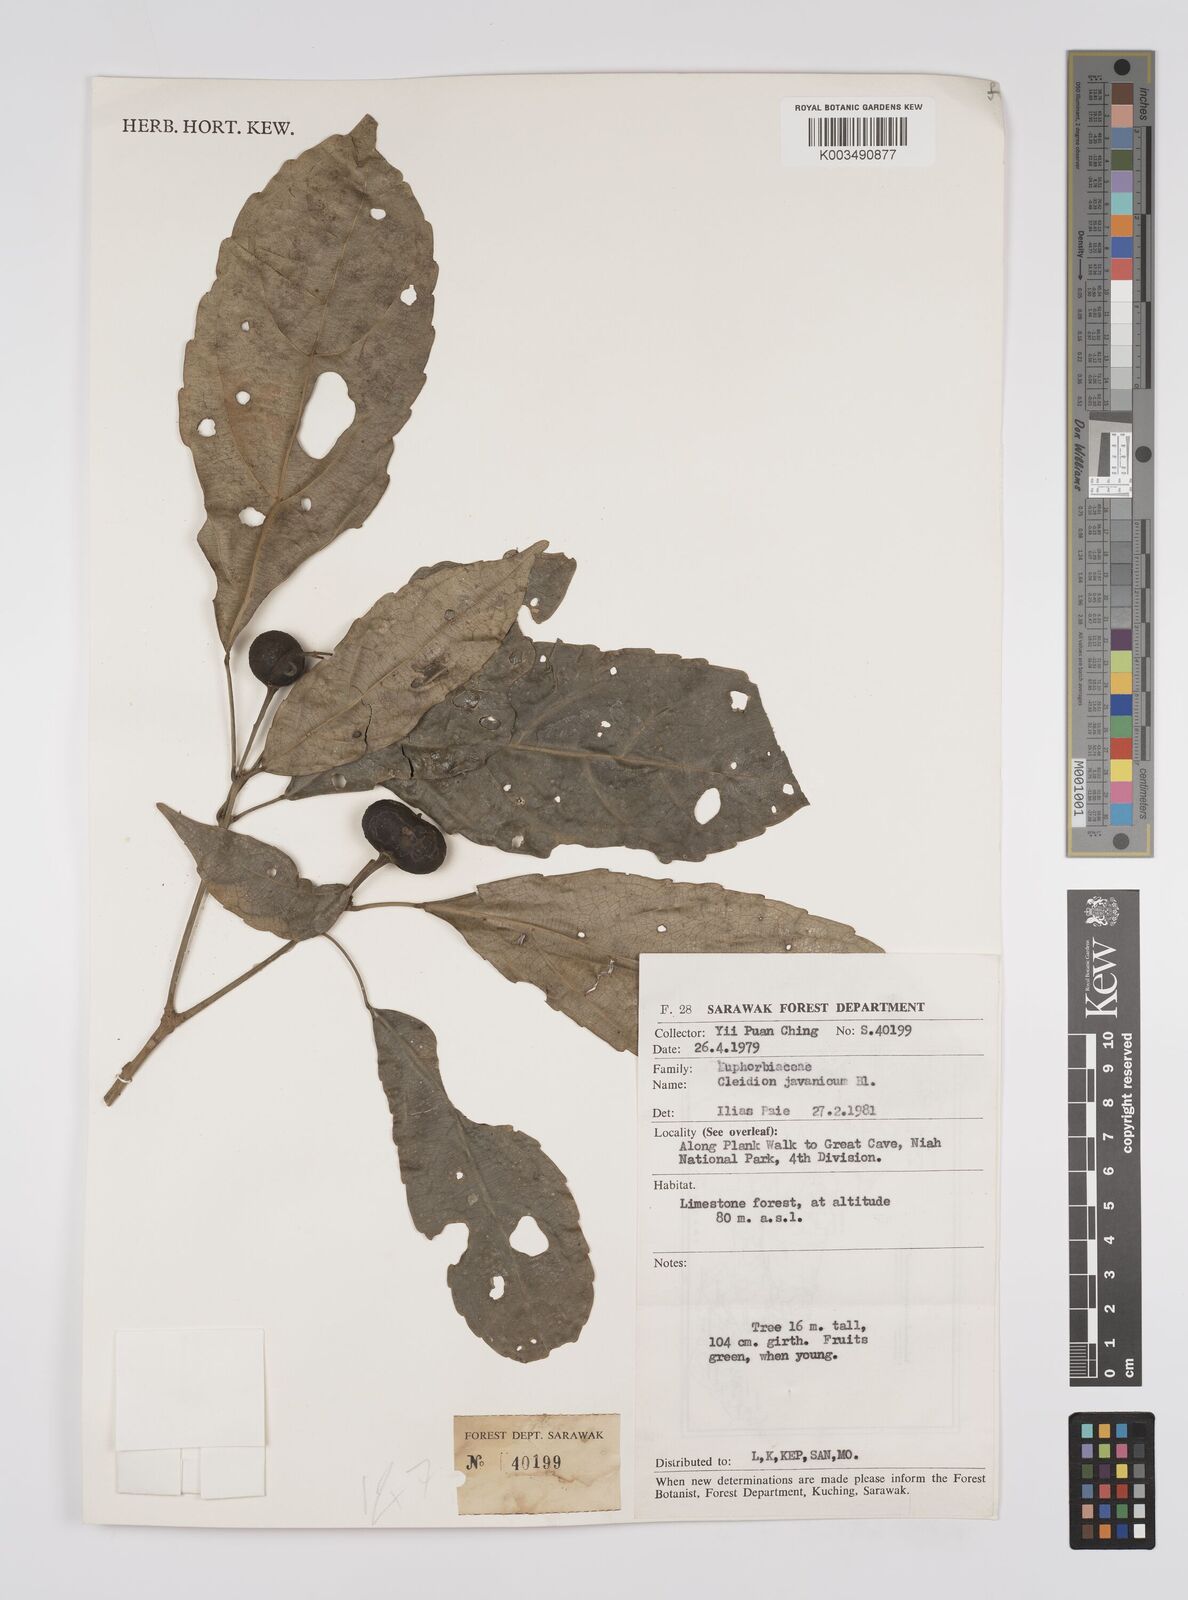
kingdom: Plantae
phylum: Tracheophyta
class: Magnoliopsida
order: Malpighiales
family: Euphorbiaceae
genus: Acalypha
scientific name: Acalypha spiciflora
